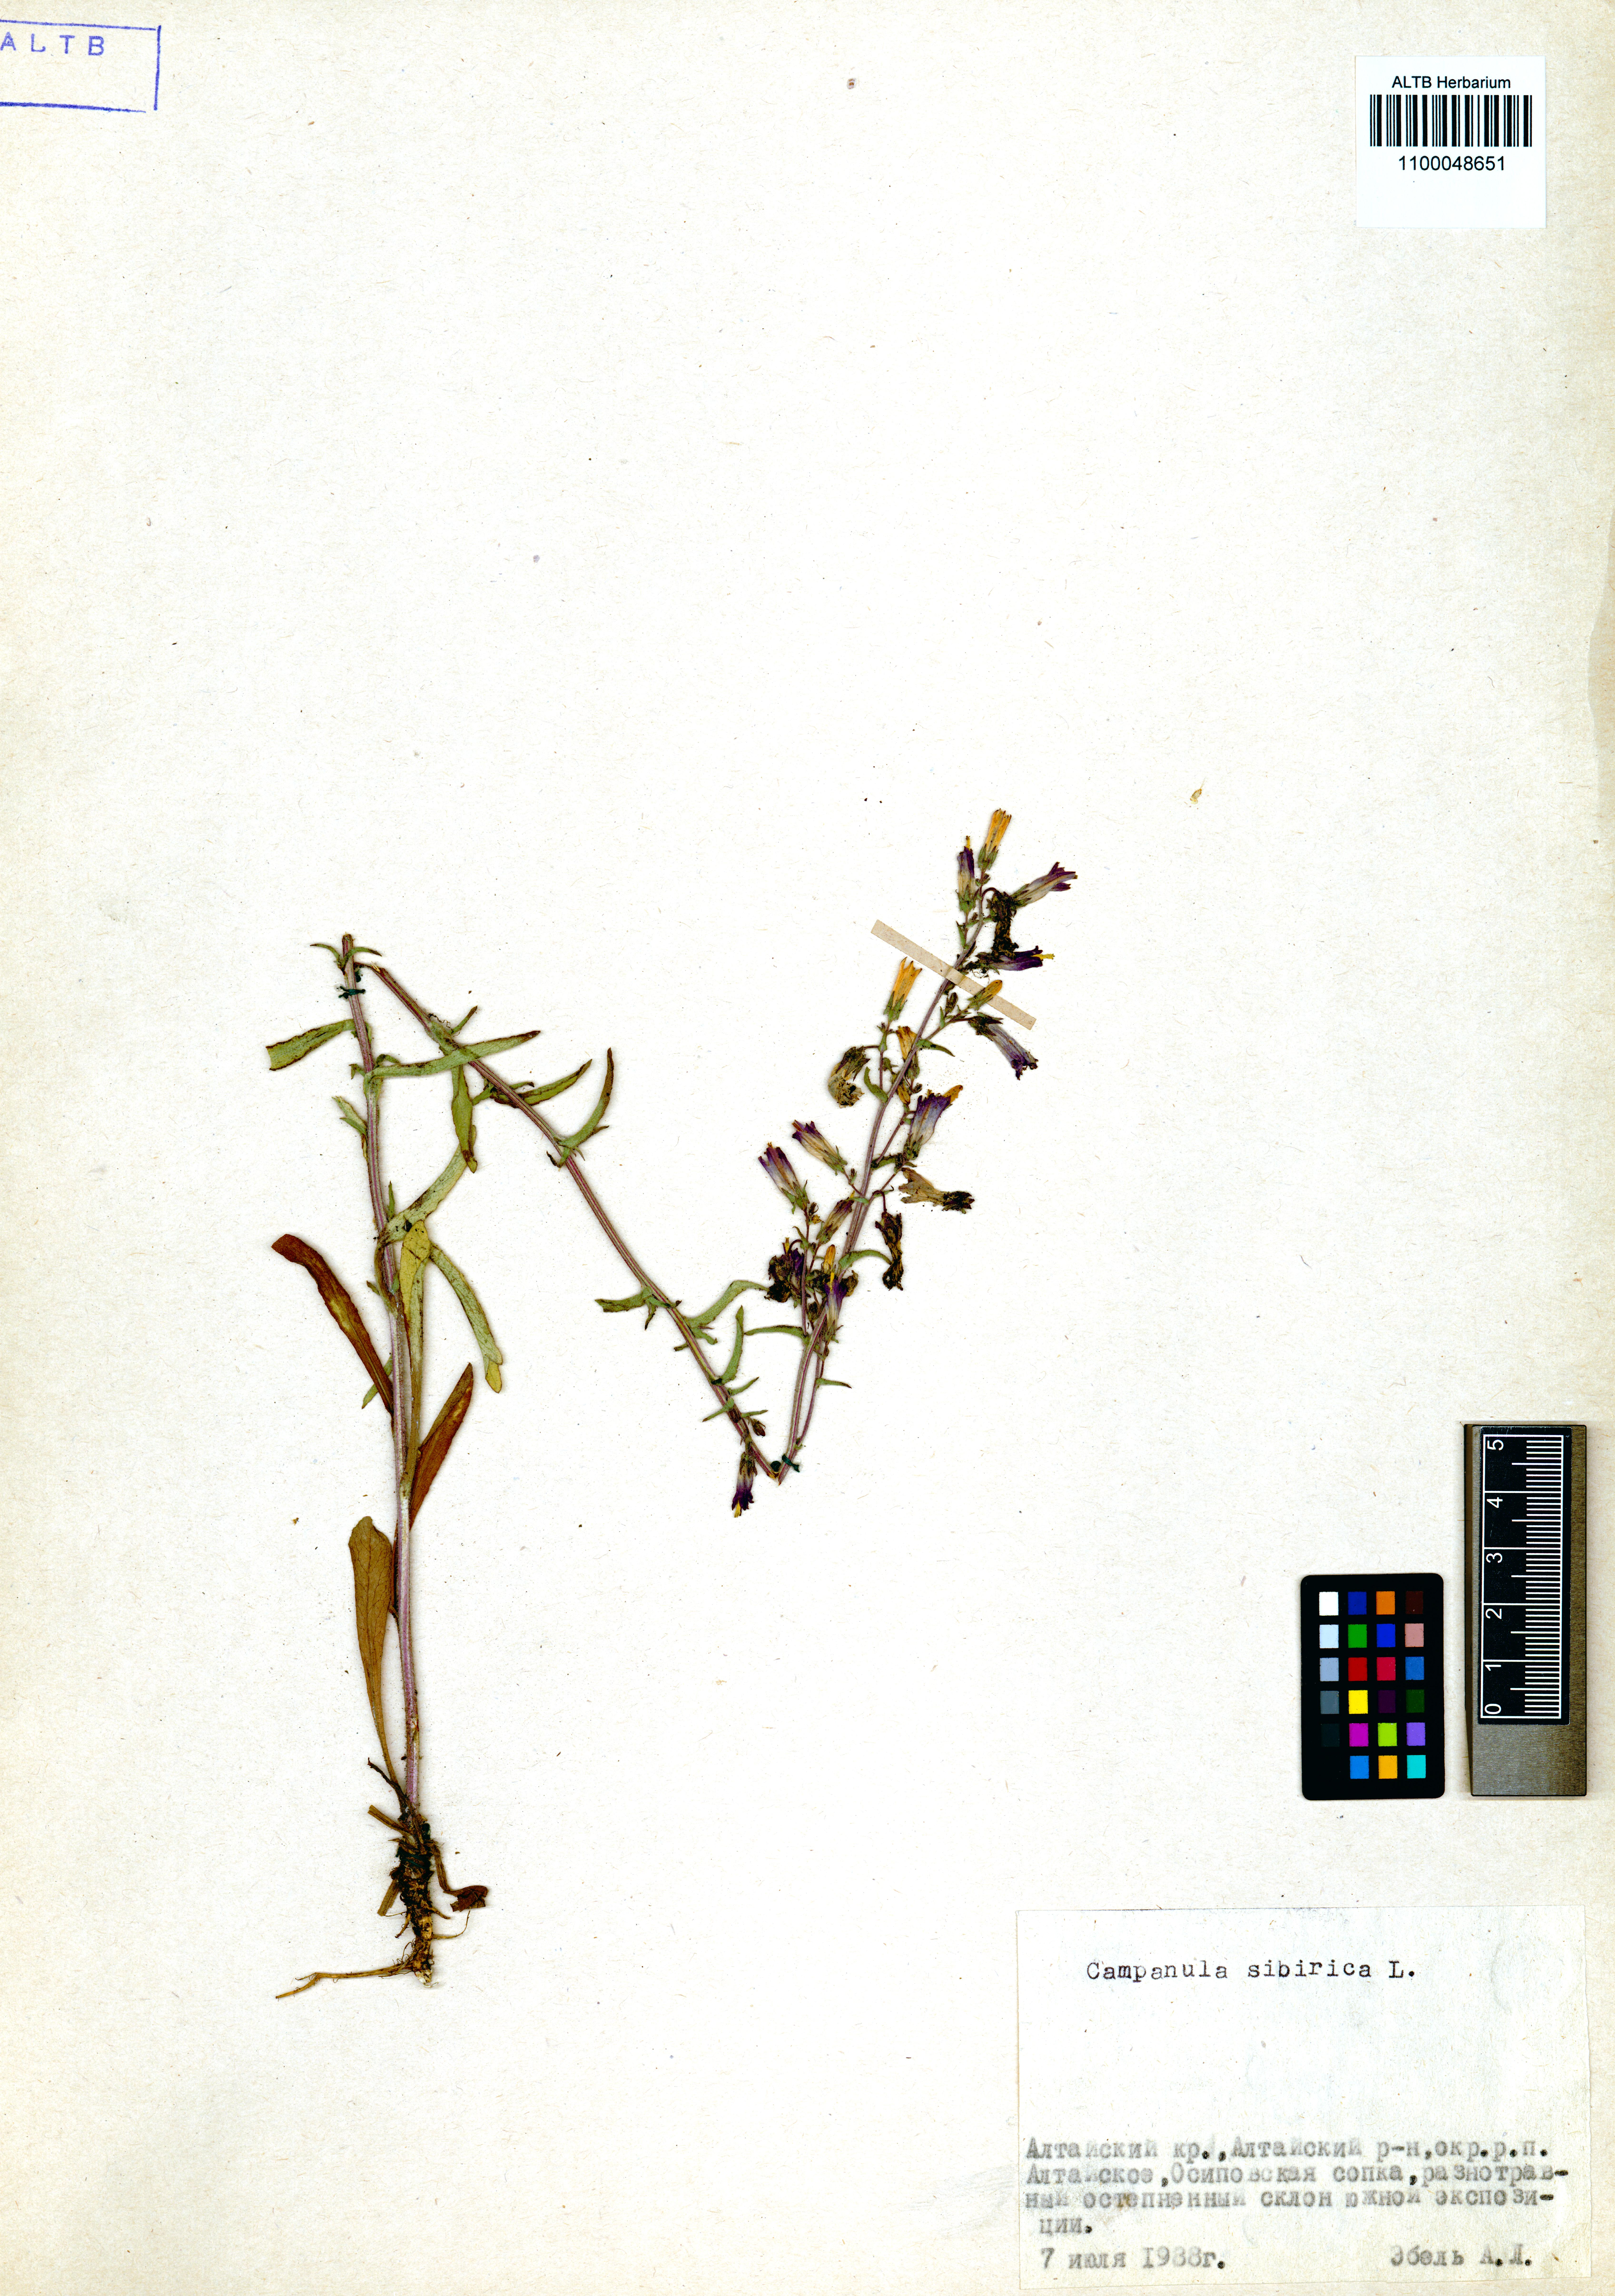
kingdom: Plantae
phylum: Tracheophyta
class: Magnoliopsida
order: Asterales
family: Campanulaceae
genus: Campanula
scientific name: Campanula sibirica
